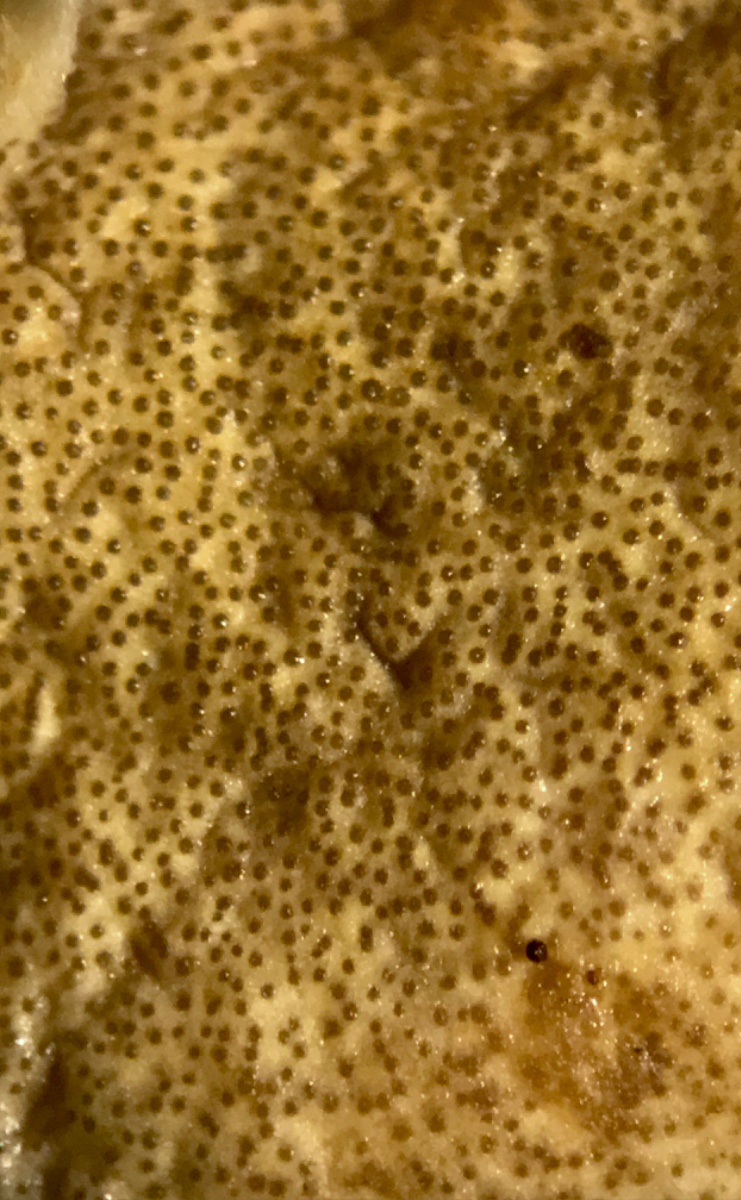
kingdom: Fungi
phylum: Ascomycota
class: Sordariomycetes
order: Hypocreales
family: Hypocreaceae
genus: Trichoderma
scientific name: Trichoderma citrinum
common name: udbredt kødkerne
